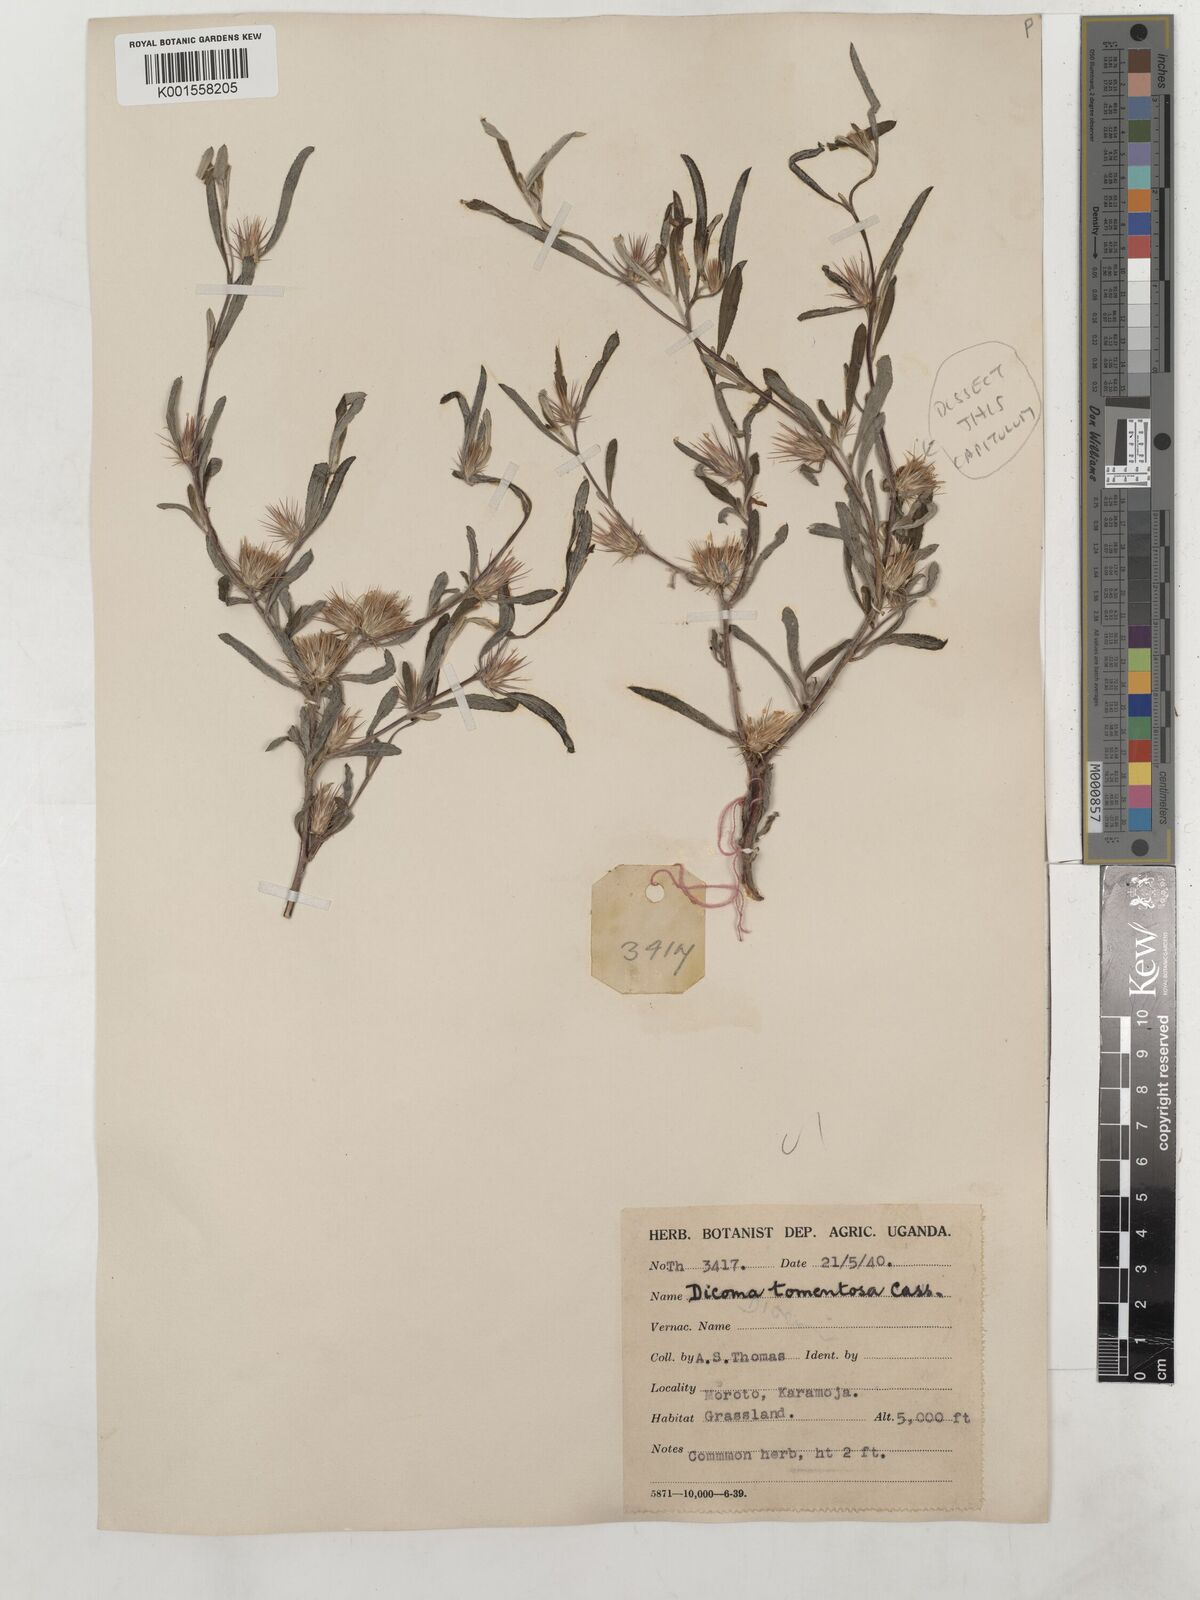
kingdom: Plantae
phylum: Tracheophyta
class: Magnoliopsida
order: Asterales
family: Asteraceae
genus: Dicoma
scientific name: Dicoma tomentosa
